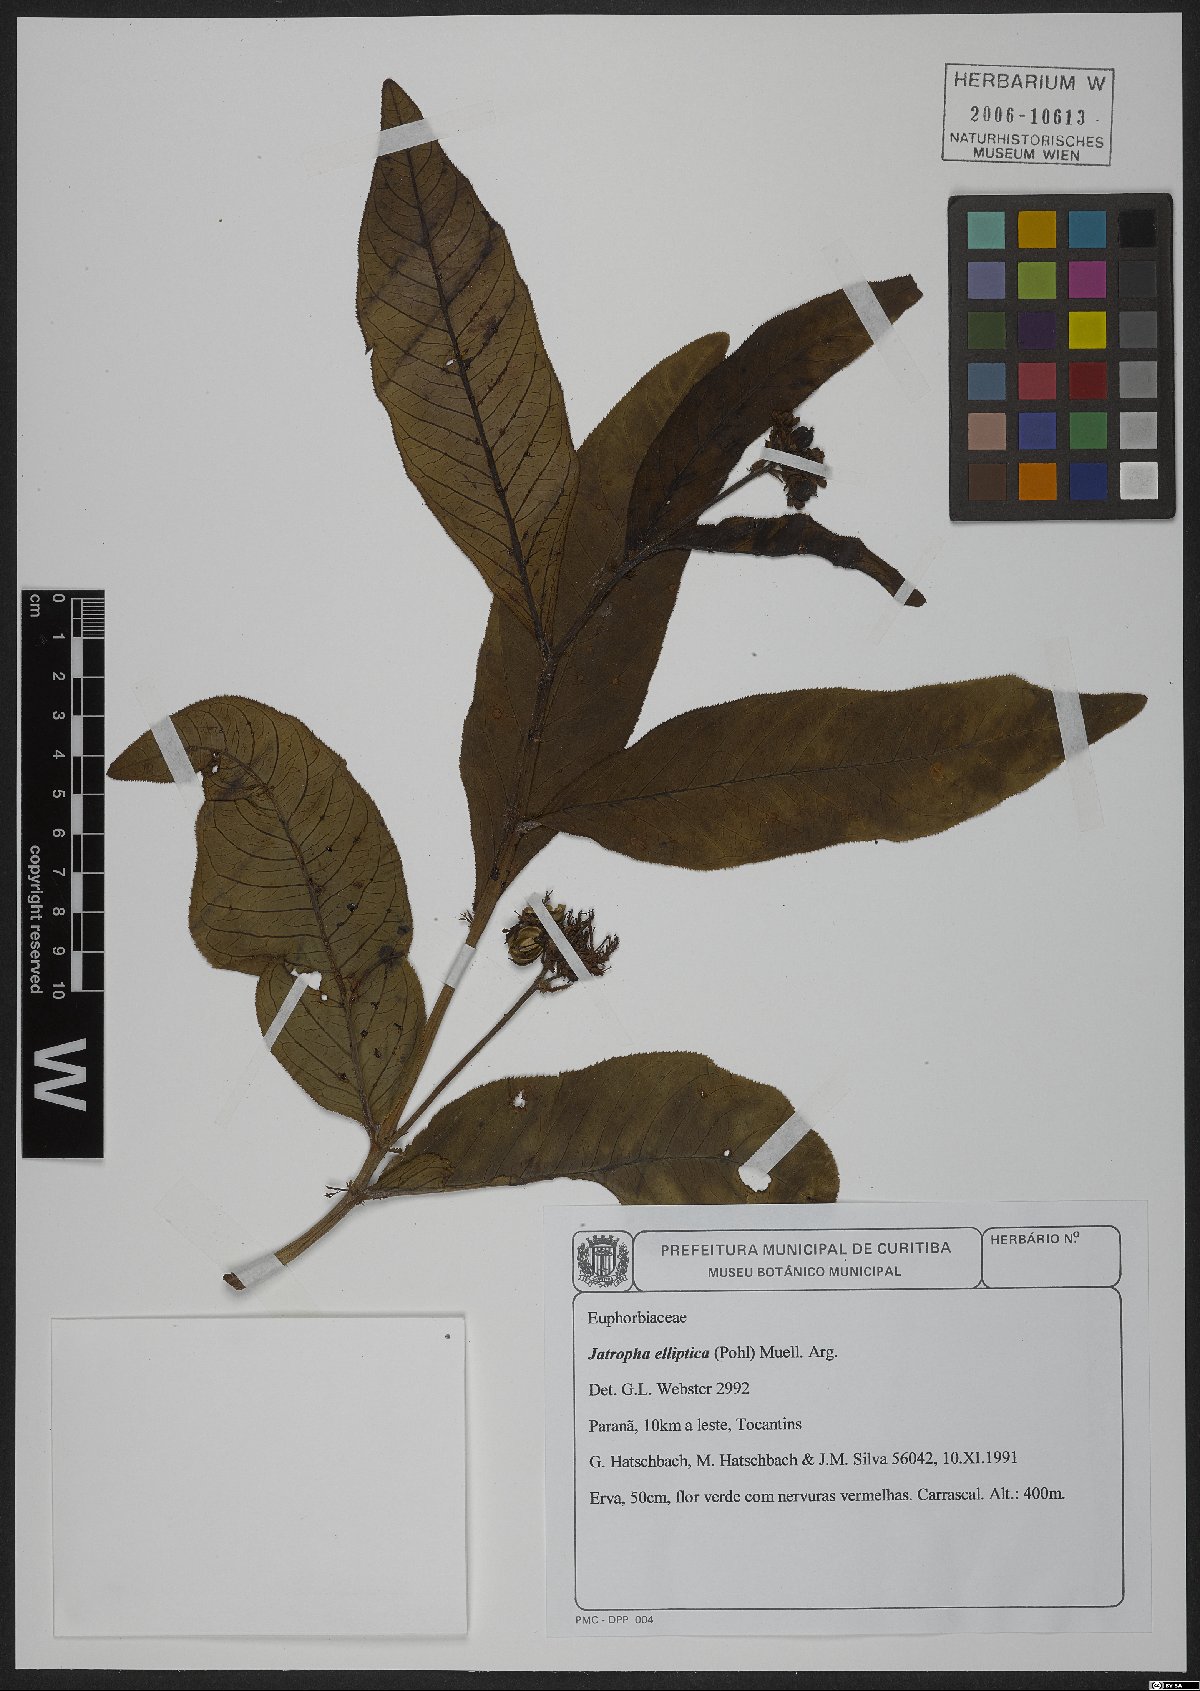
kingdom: Plantae
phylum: Tracheophyta
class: Magnoliopsida
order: Malpighiales
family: Euphorbiaceae
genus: Jatropha
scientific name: Jatropha elliptica
